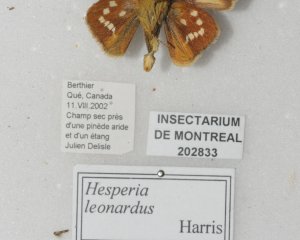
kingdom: Animalia
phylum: Arthropoda
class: Insecta
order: Lepidoptera
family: Hesperiidae
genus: Hesperia
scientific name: Hesperia leonardus
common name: Leonard's Skipper
